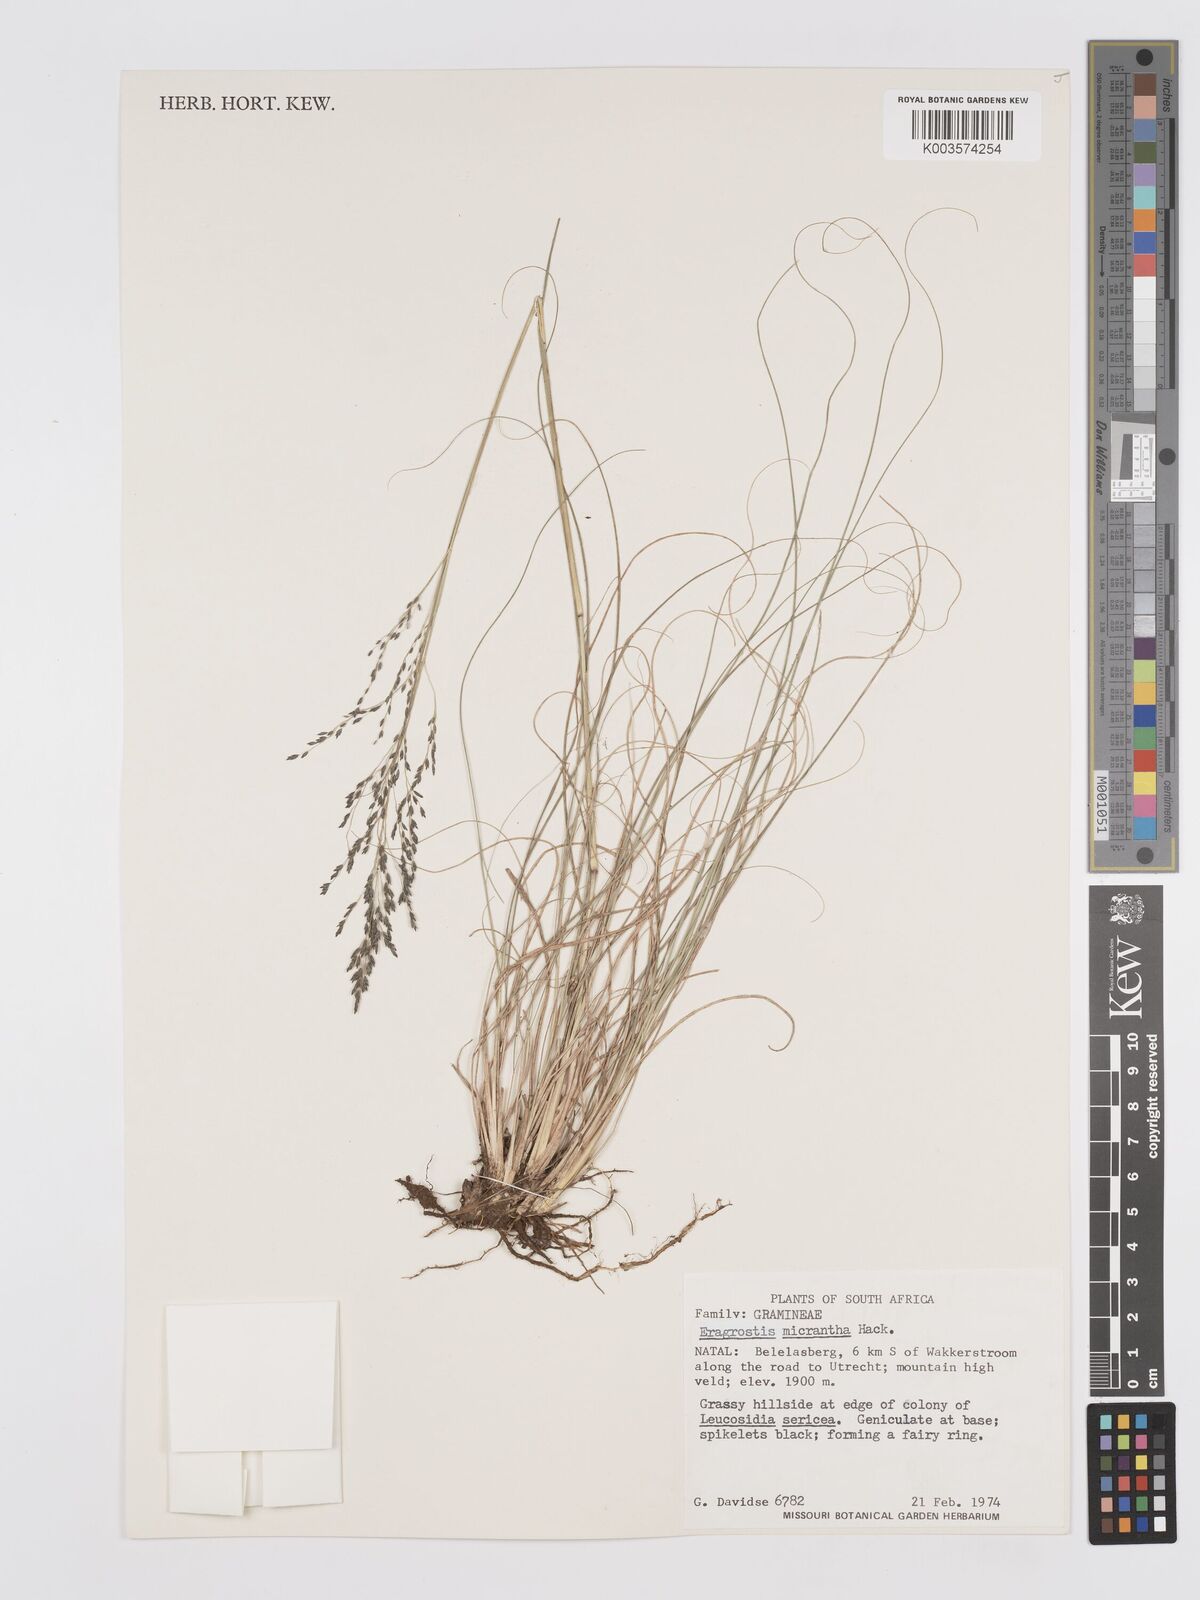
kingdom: Plantae
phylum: Tracheophyta
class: Liliopsida
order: Poales
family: Poaceae
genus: Eragrostis
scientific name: Eragrostis micrantha
